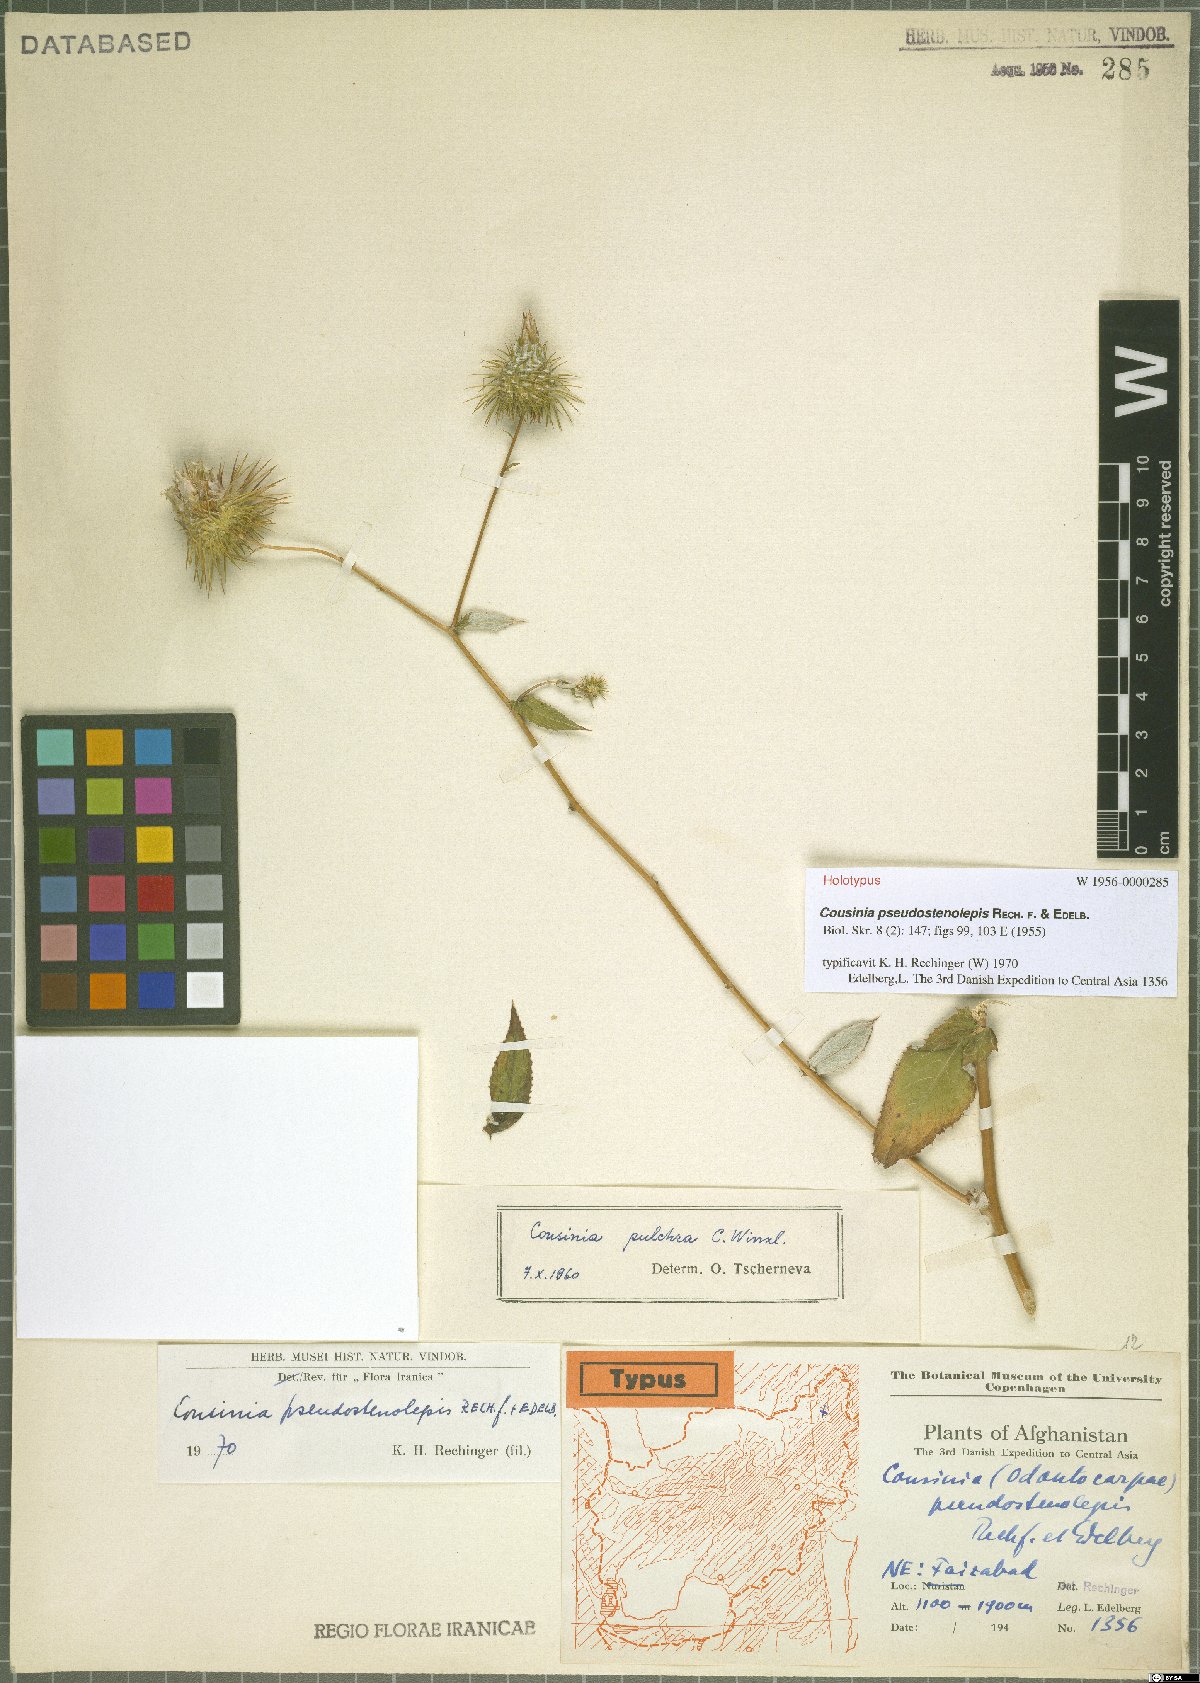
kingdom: Plantae
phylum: Tracheophyta
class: Magnoliopsida
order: Asterales
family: Asteraceae
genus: Cousinia
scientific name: Cousinia pseudostenolepis
